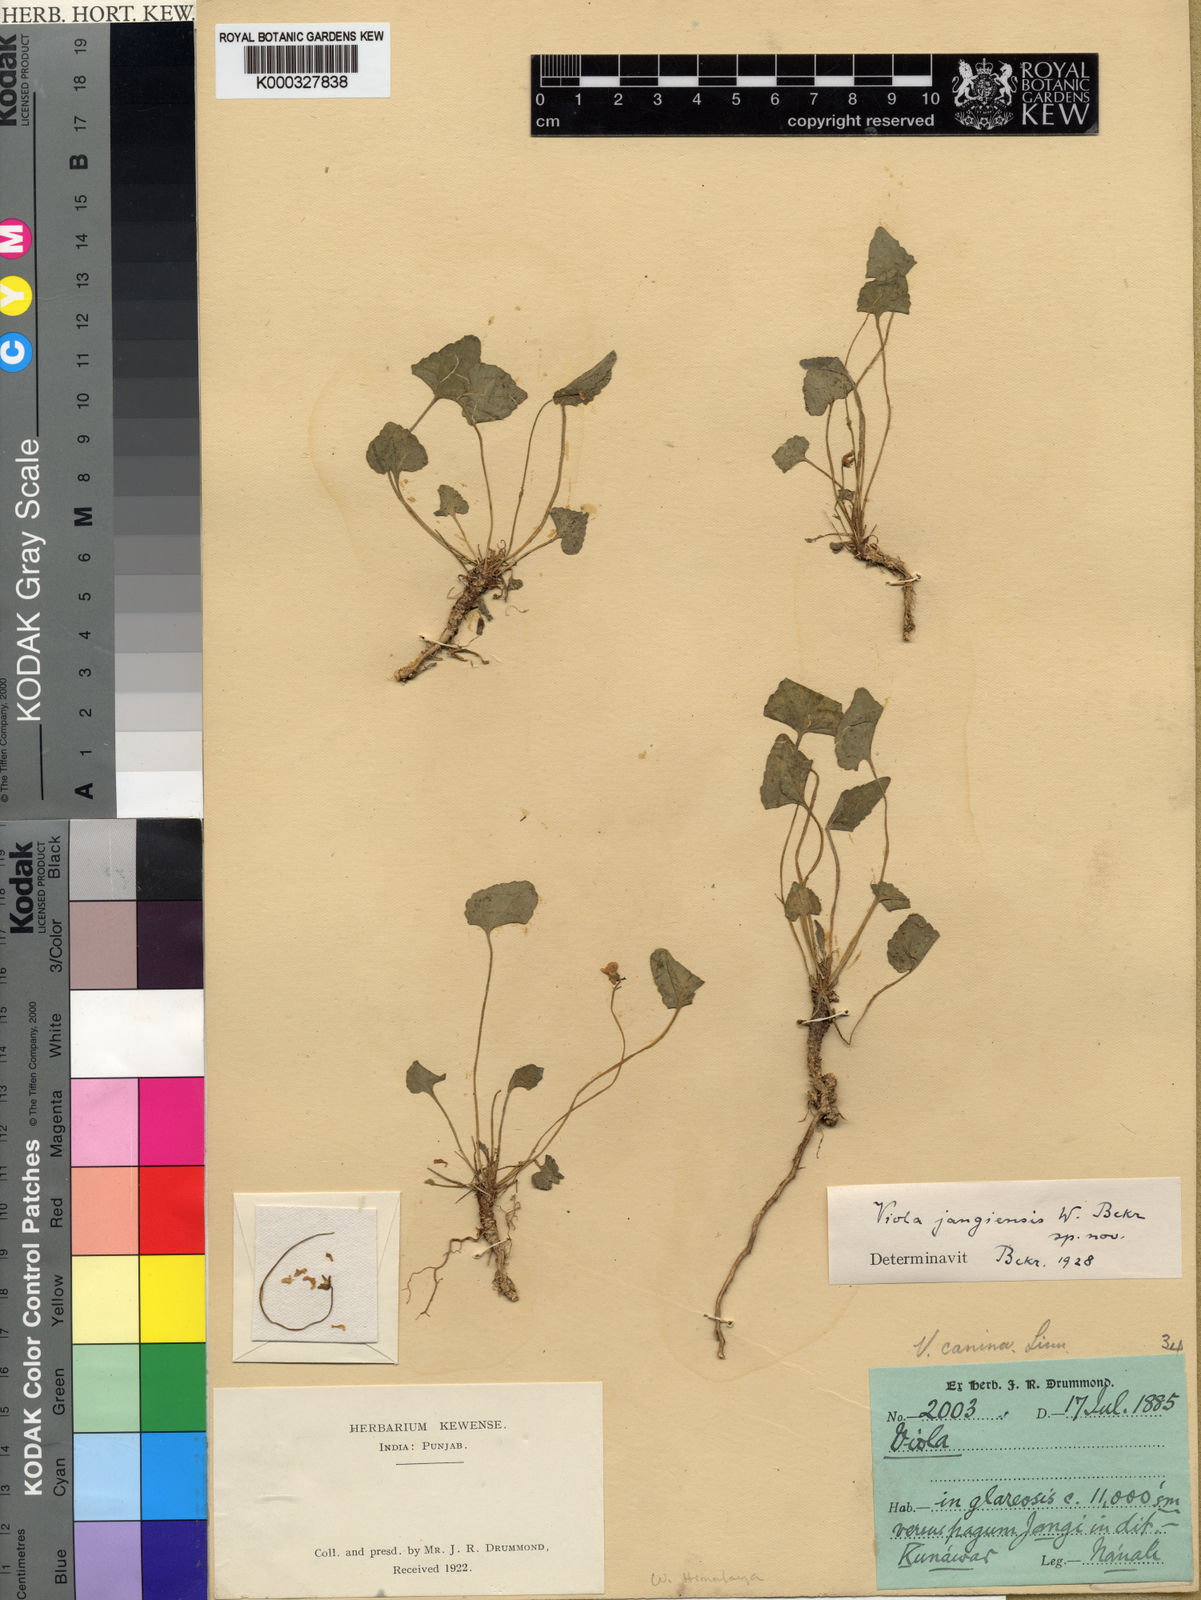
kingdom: Plantae
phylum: Tracheophyta
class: Magnoliopsida
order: Malpighiales
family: Violaceae
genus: Viola
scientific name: Viola jangiensis
